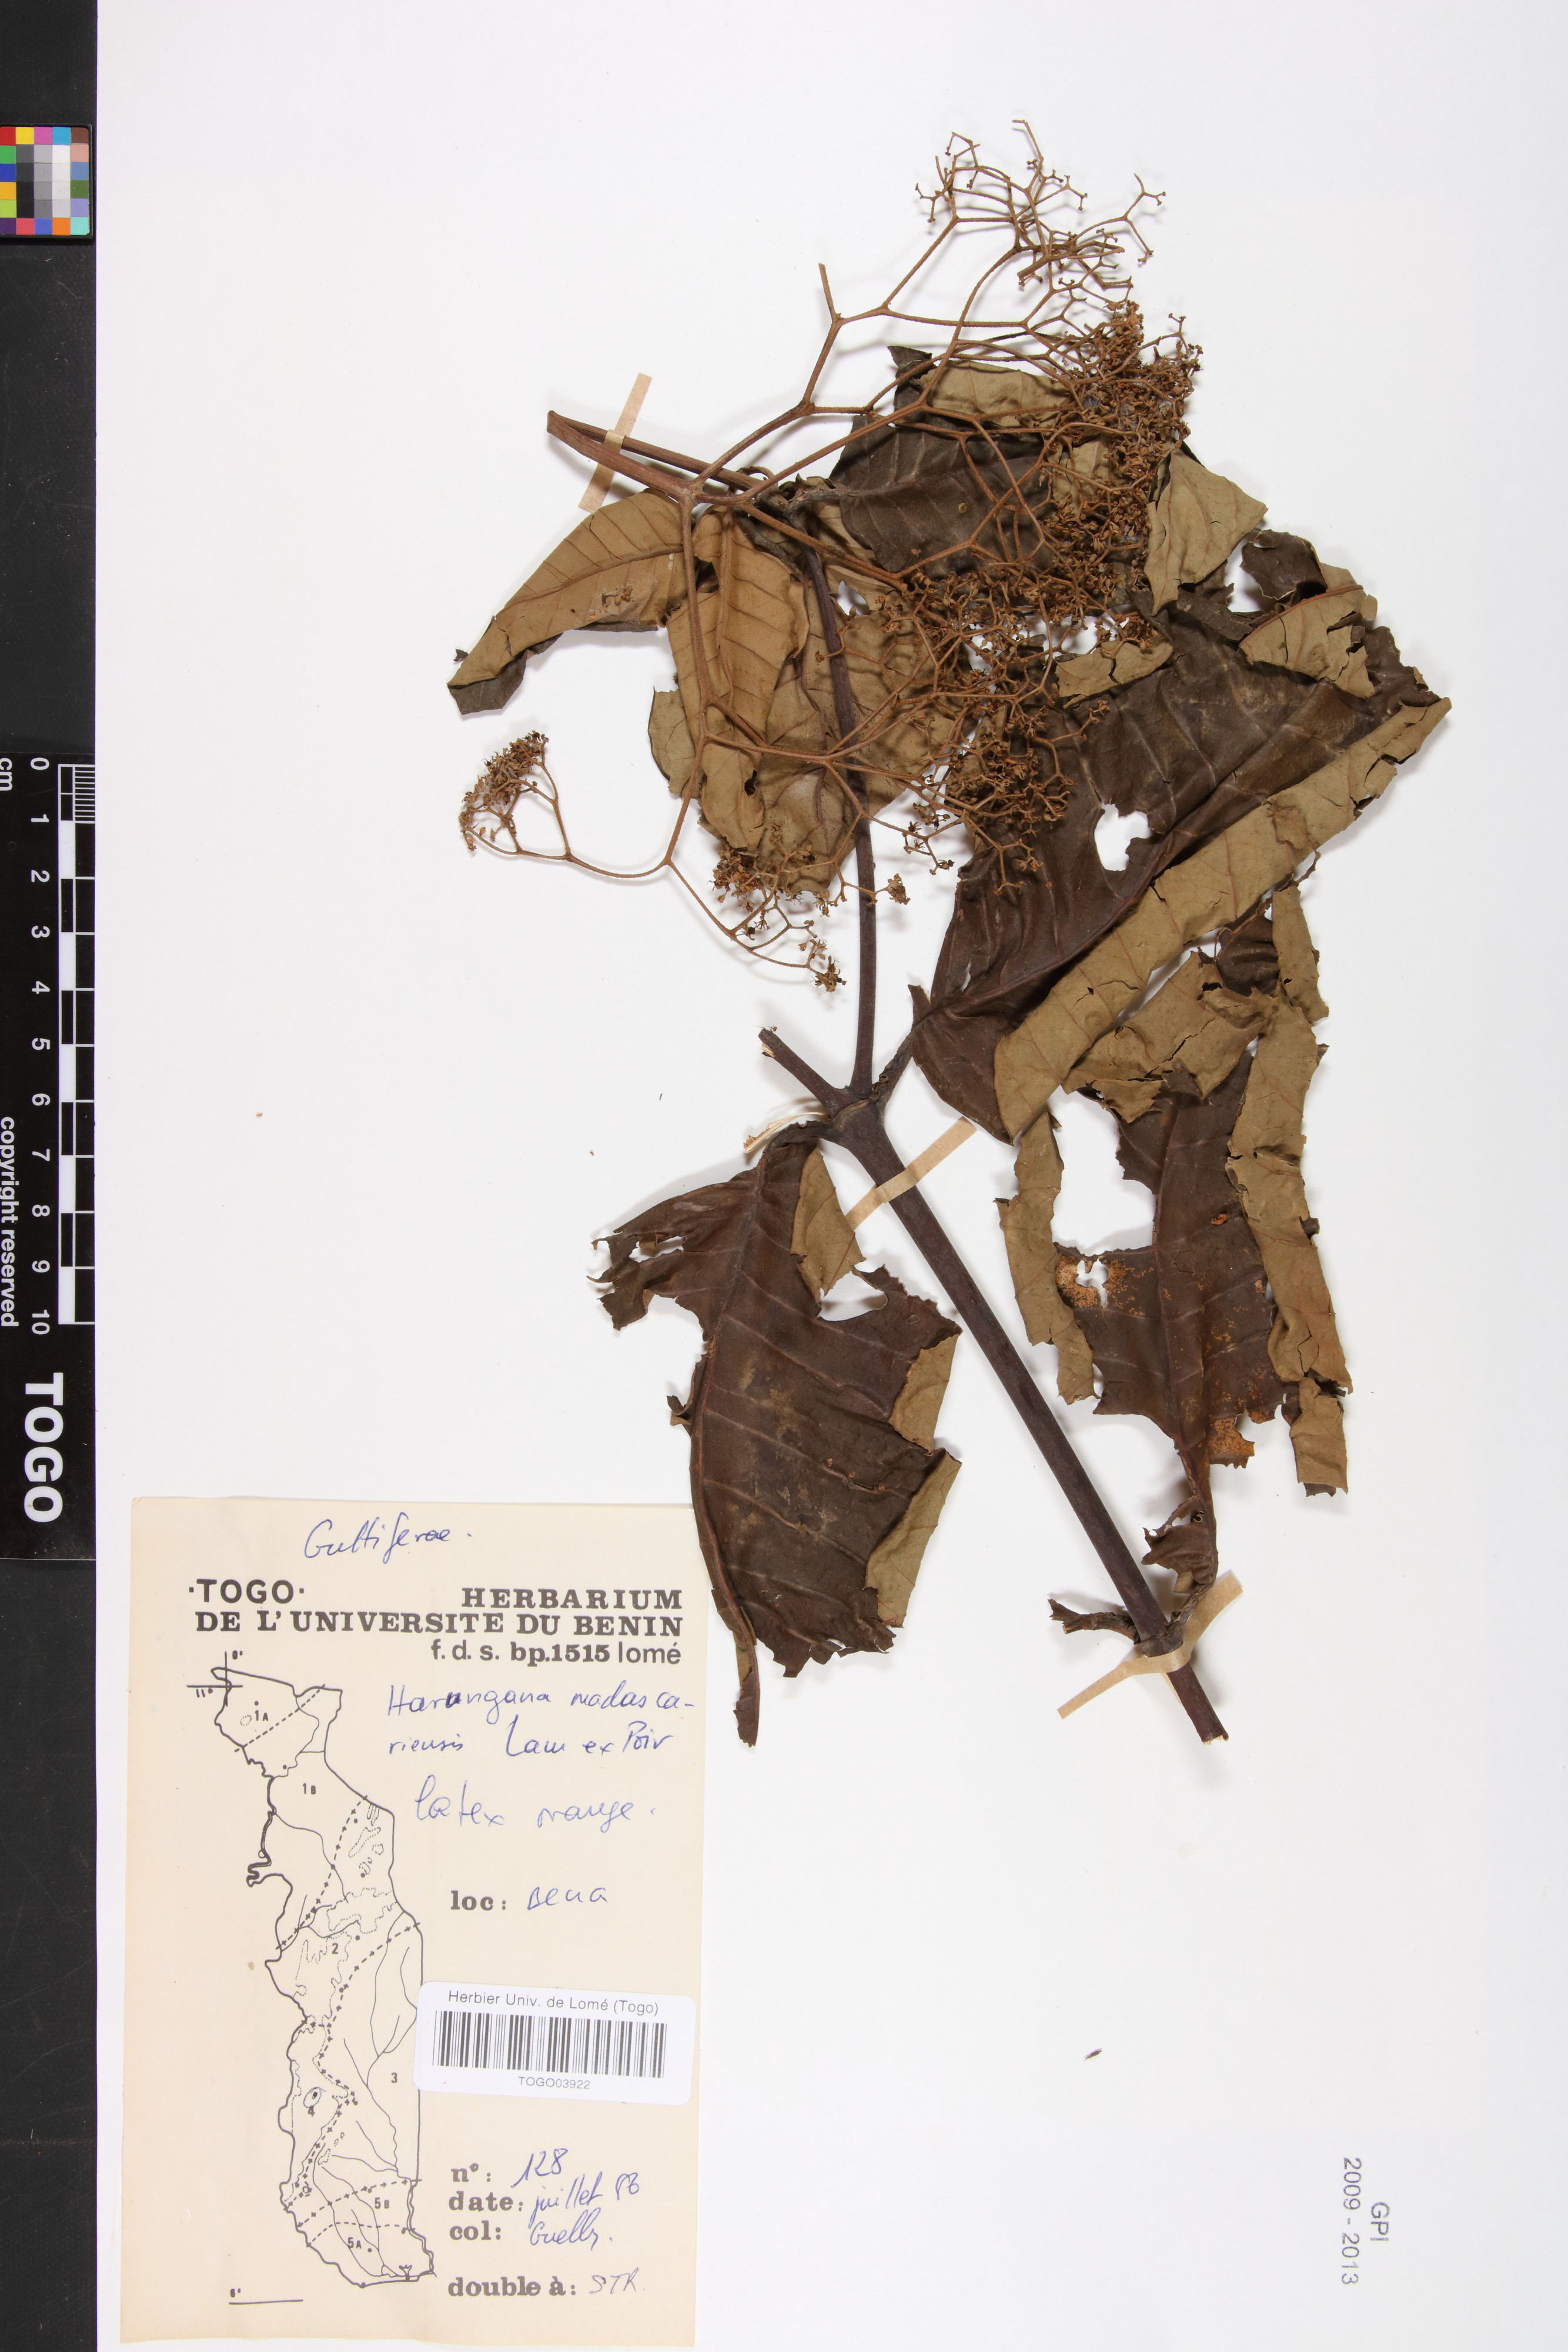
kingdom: Plantae
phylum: Tracheophyta
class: Magnoliopsida
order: Malpighiales
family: Hypericaceae
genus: Harungana
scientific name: Harungana madagascariensis
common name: Orange milktree
